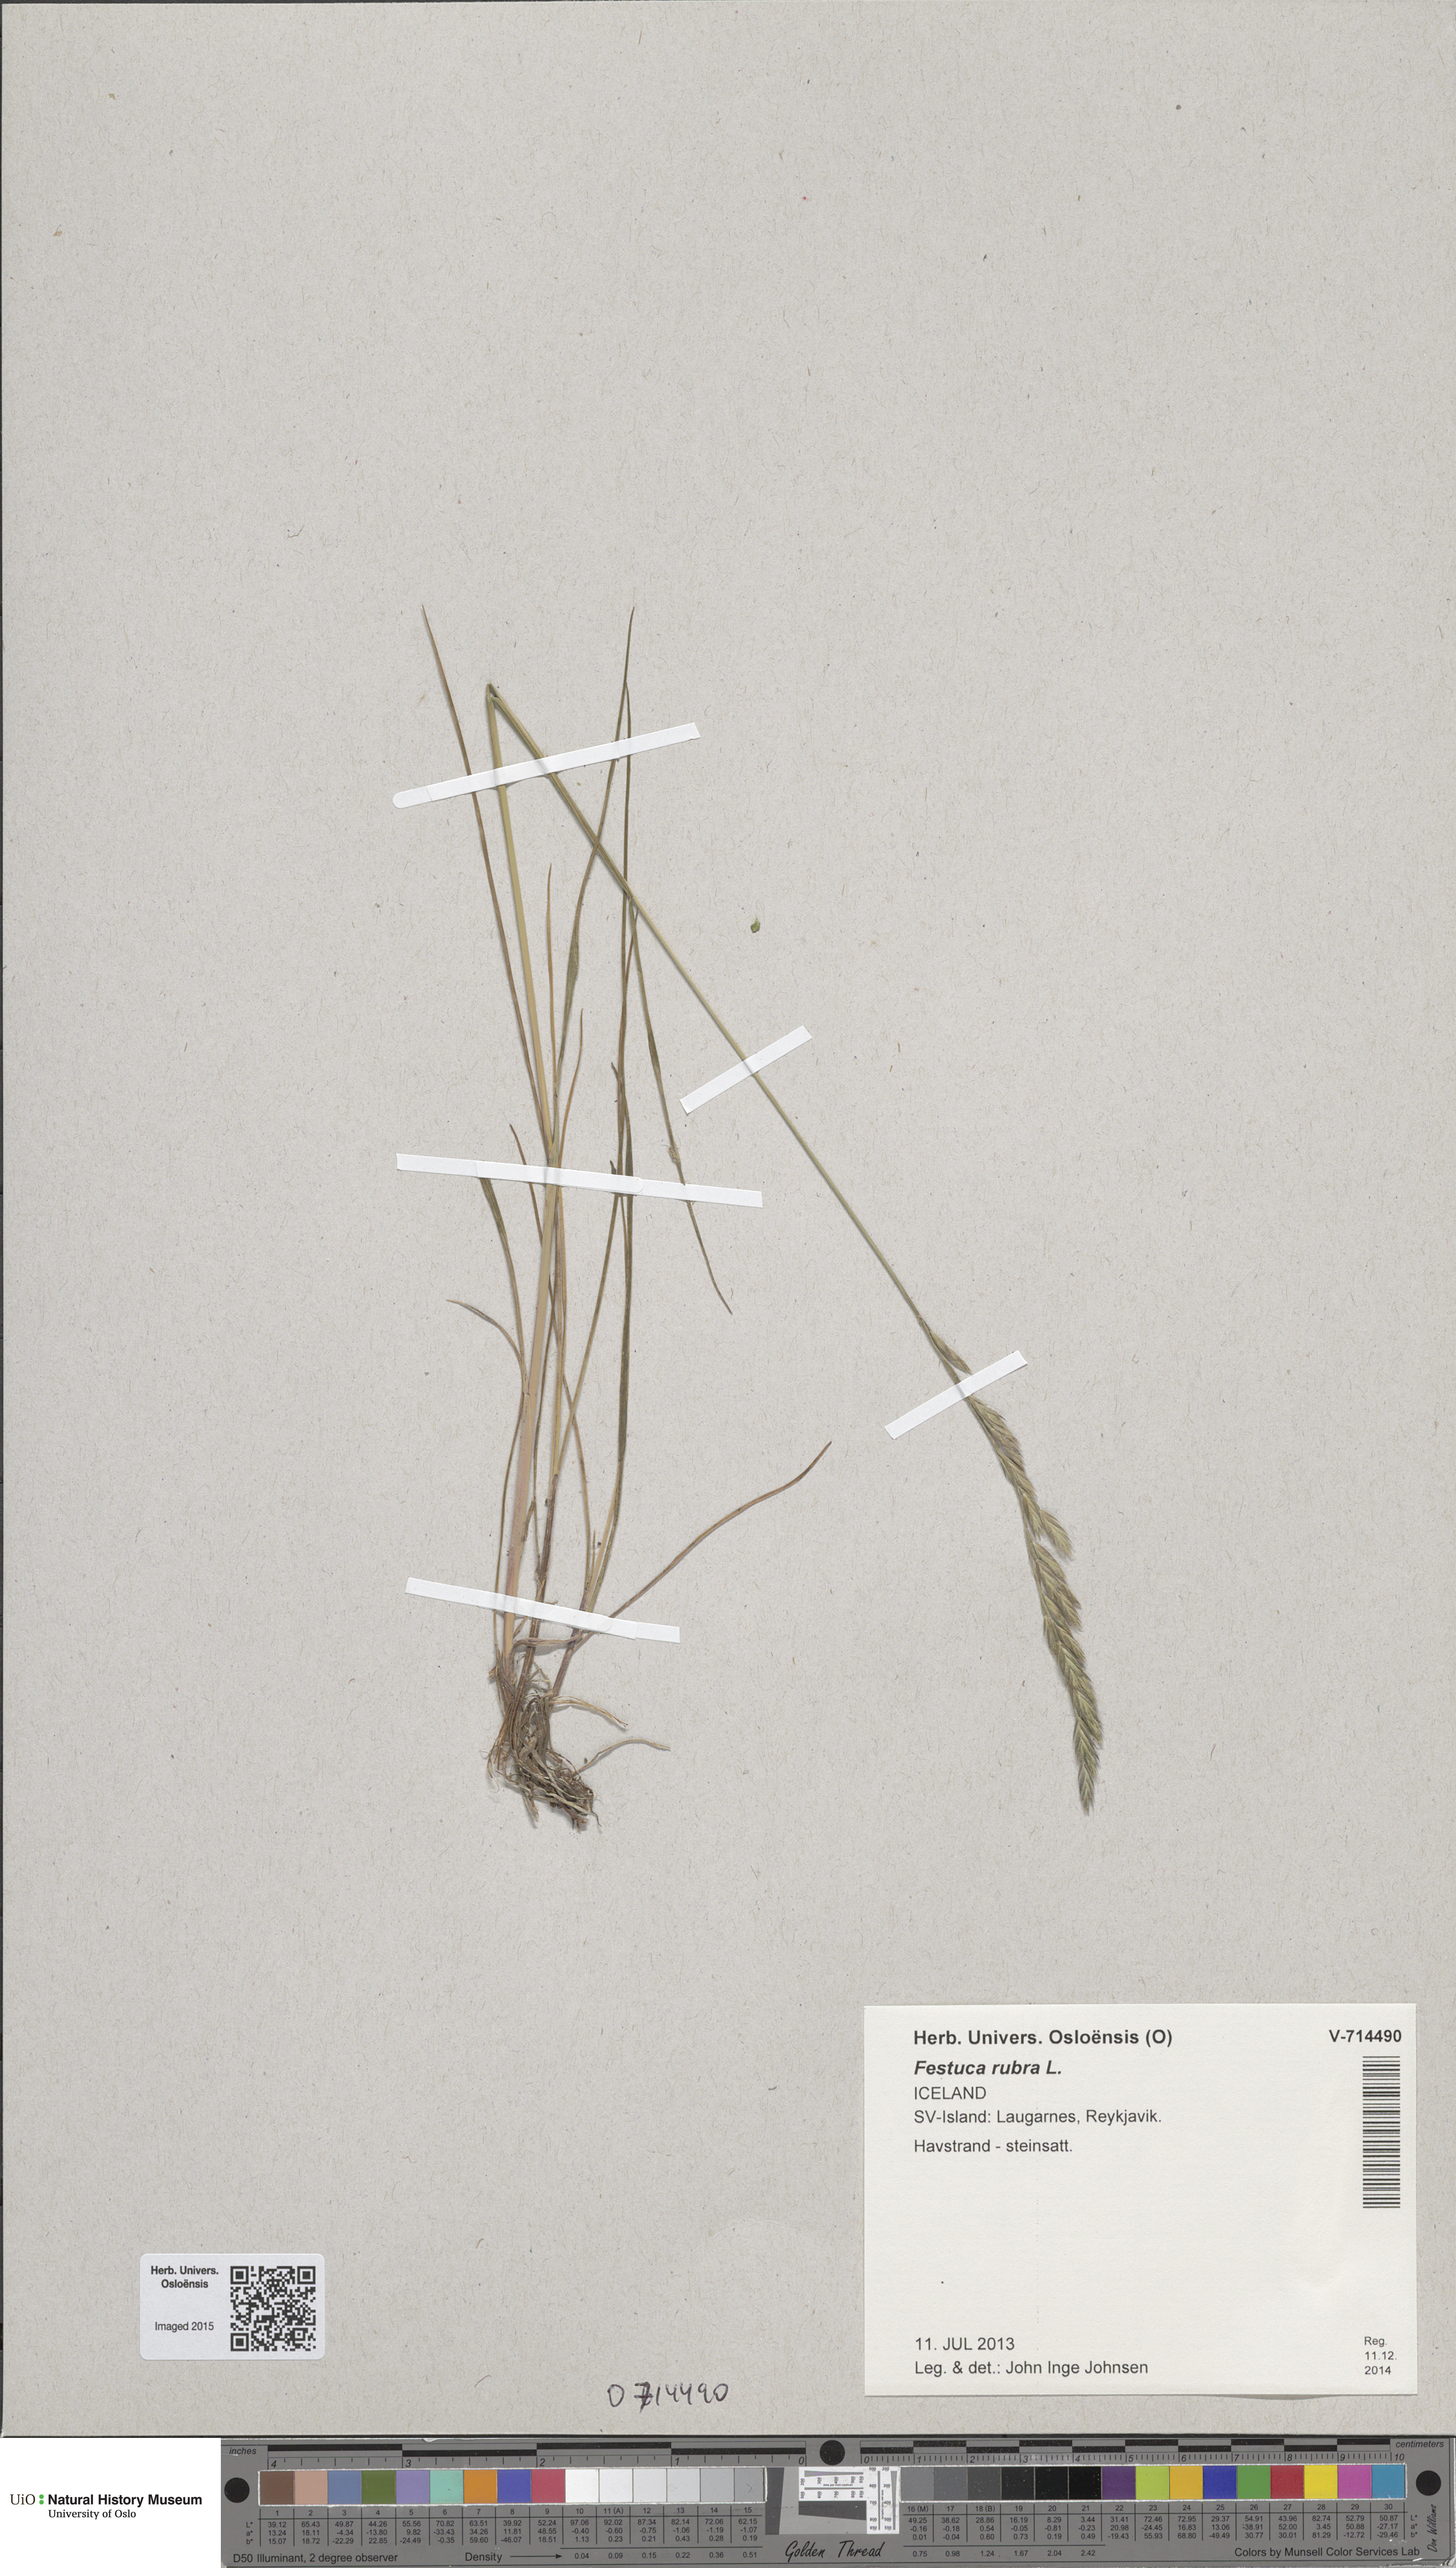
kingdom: Plantae
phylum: Tracheophyta
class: Liliopsida
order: Poales
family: Poaceae
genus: Festuca
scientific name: Festuca rubra
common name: Red fescue
